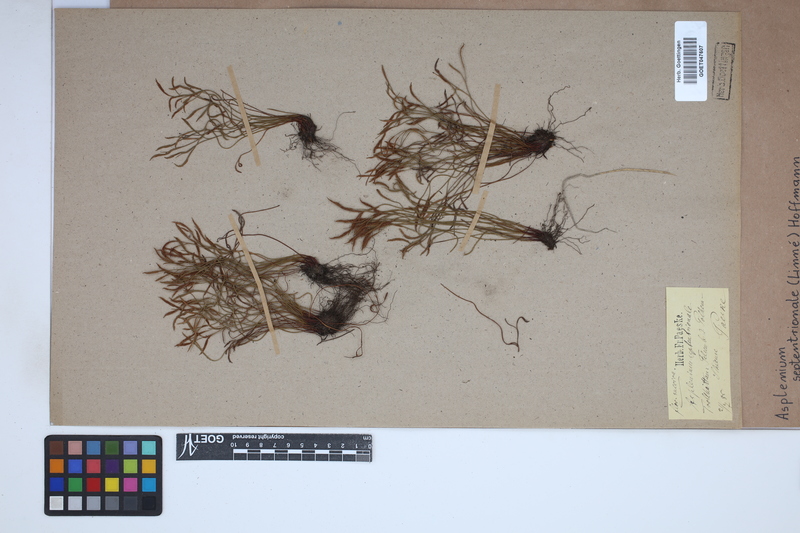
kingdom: Plantae
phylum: Tracheophyta
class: Polypodiopsida
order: Polypodiales
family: Aspleniaceae
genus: Asplenium
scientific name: Asplenium septentrionale
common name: Forked spleenwort
